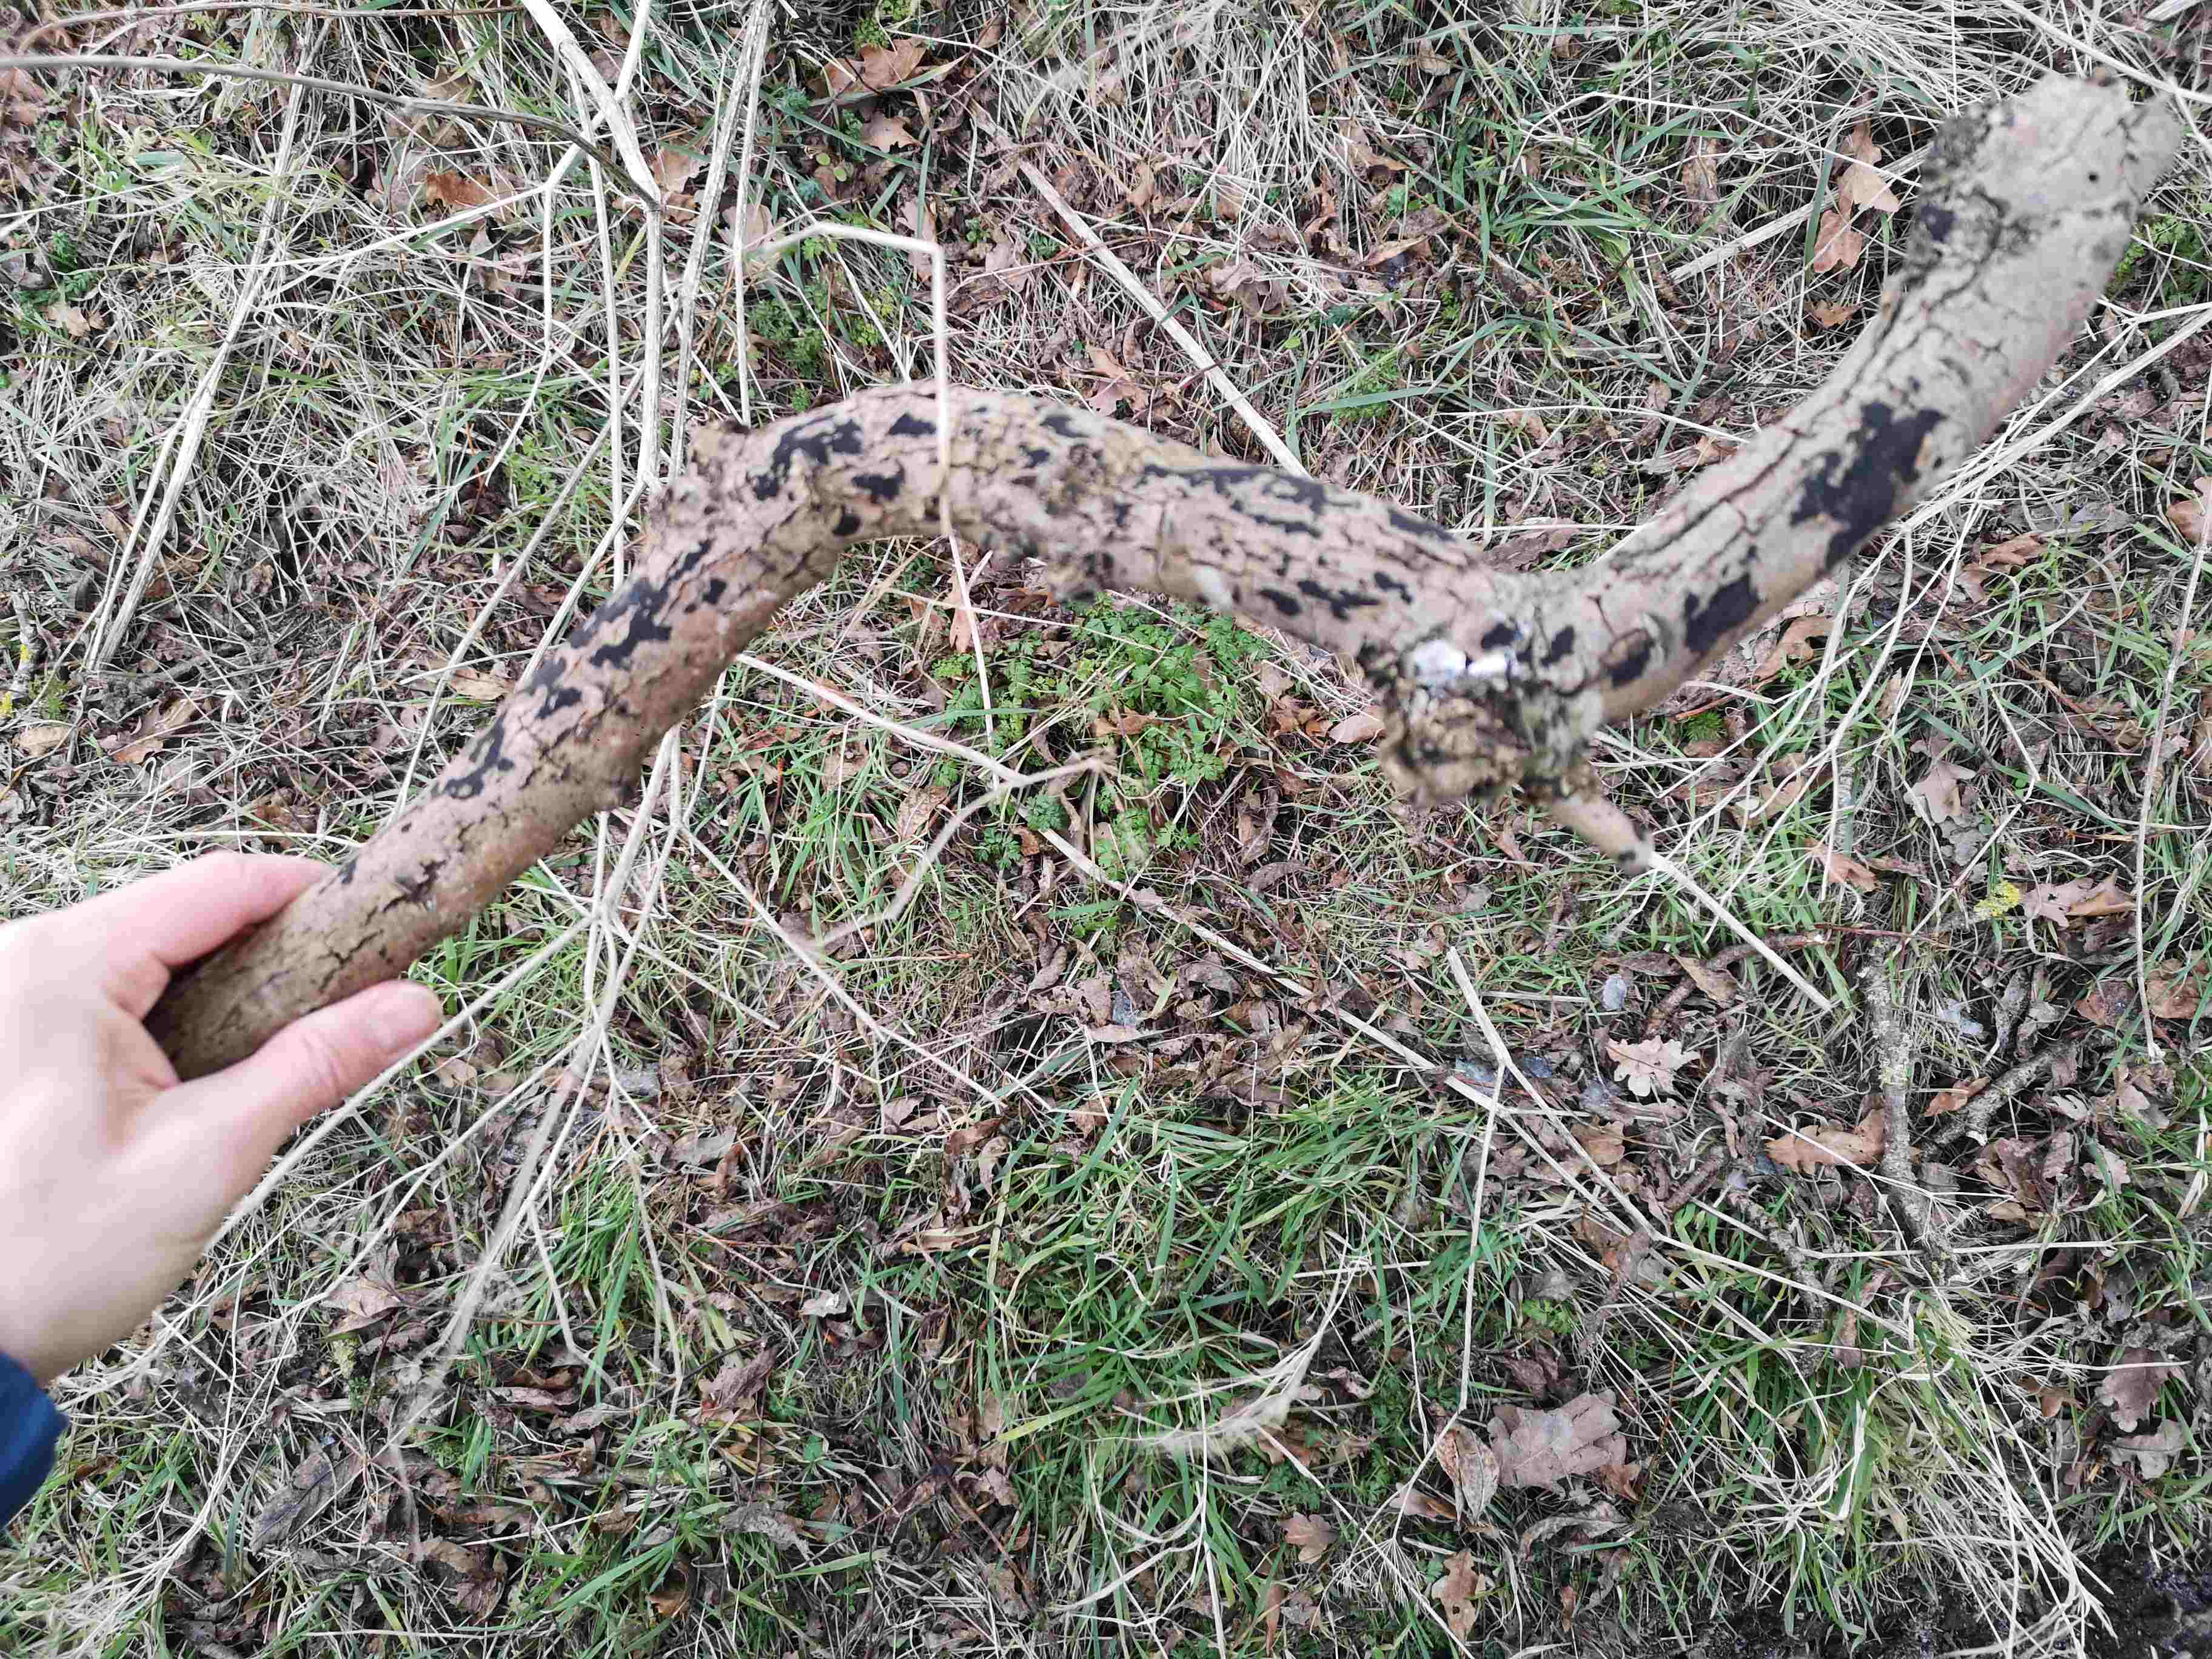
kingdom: Fungi
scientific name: Fungi
